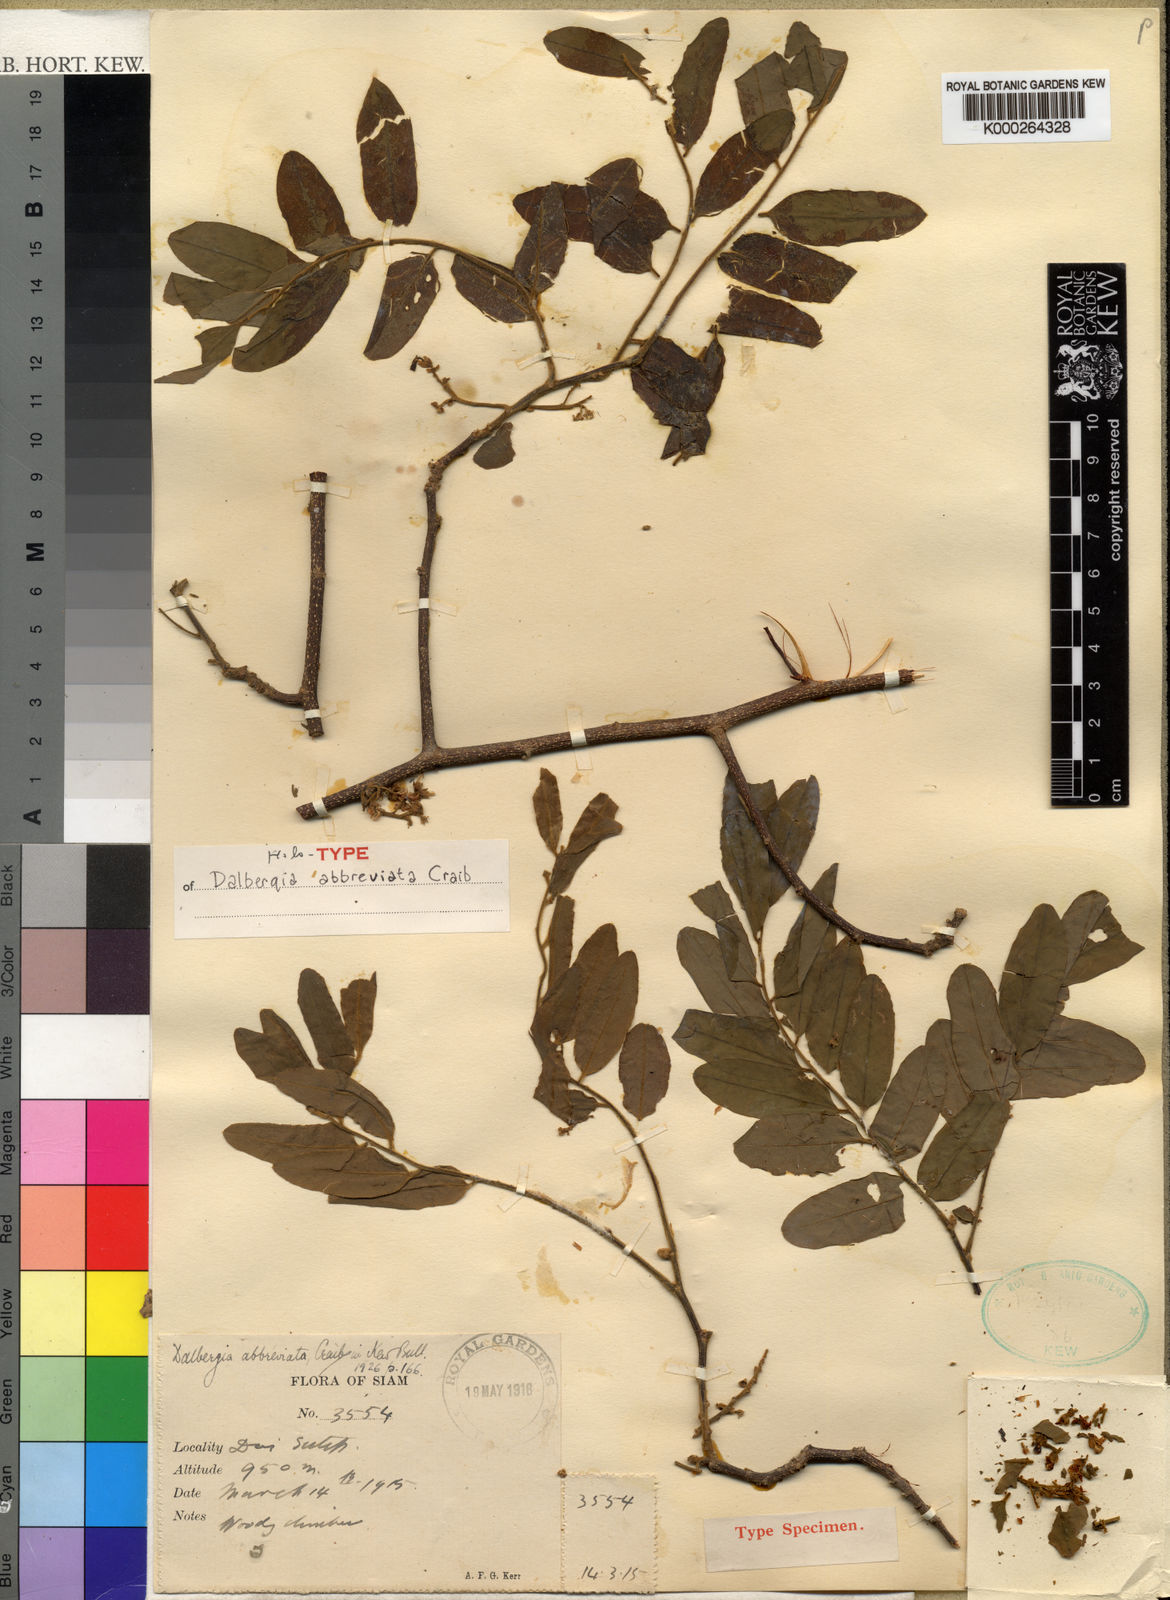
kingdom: Plantae
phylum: Tracheophyta
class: Magnoliopsida
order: Fabales
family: Fabaceae
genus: Dalbergia
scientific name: Dalbergia velutina
